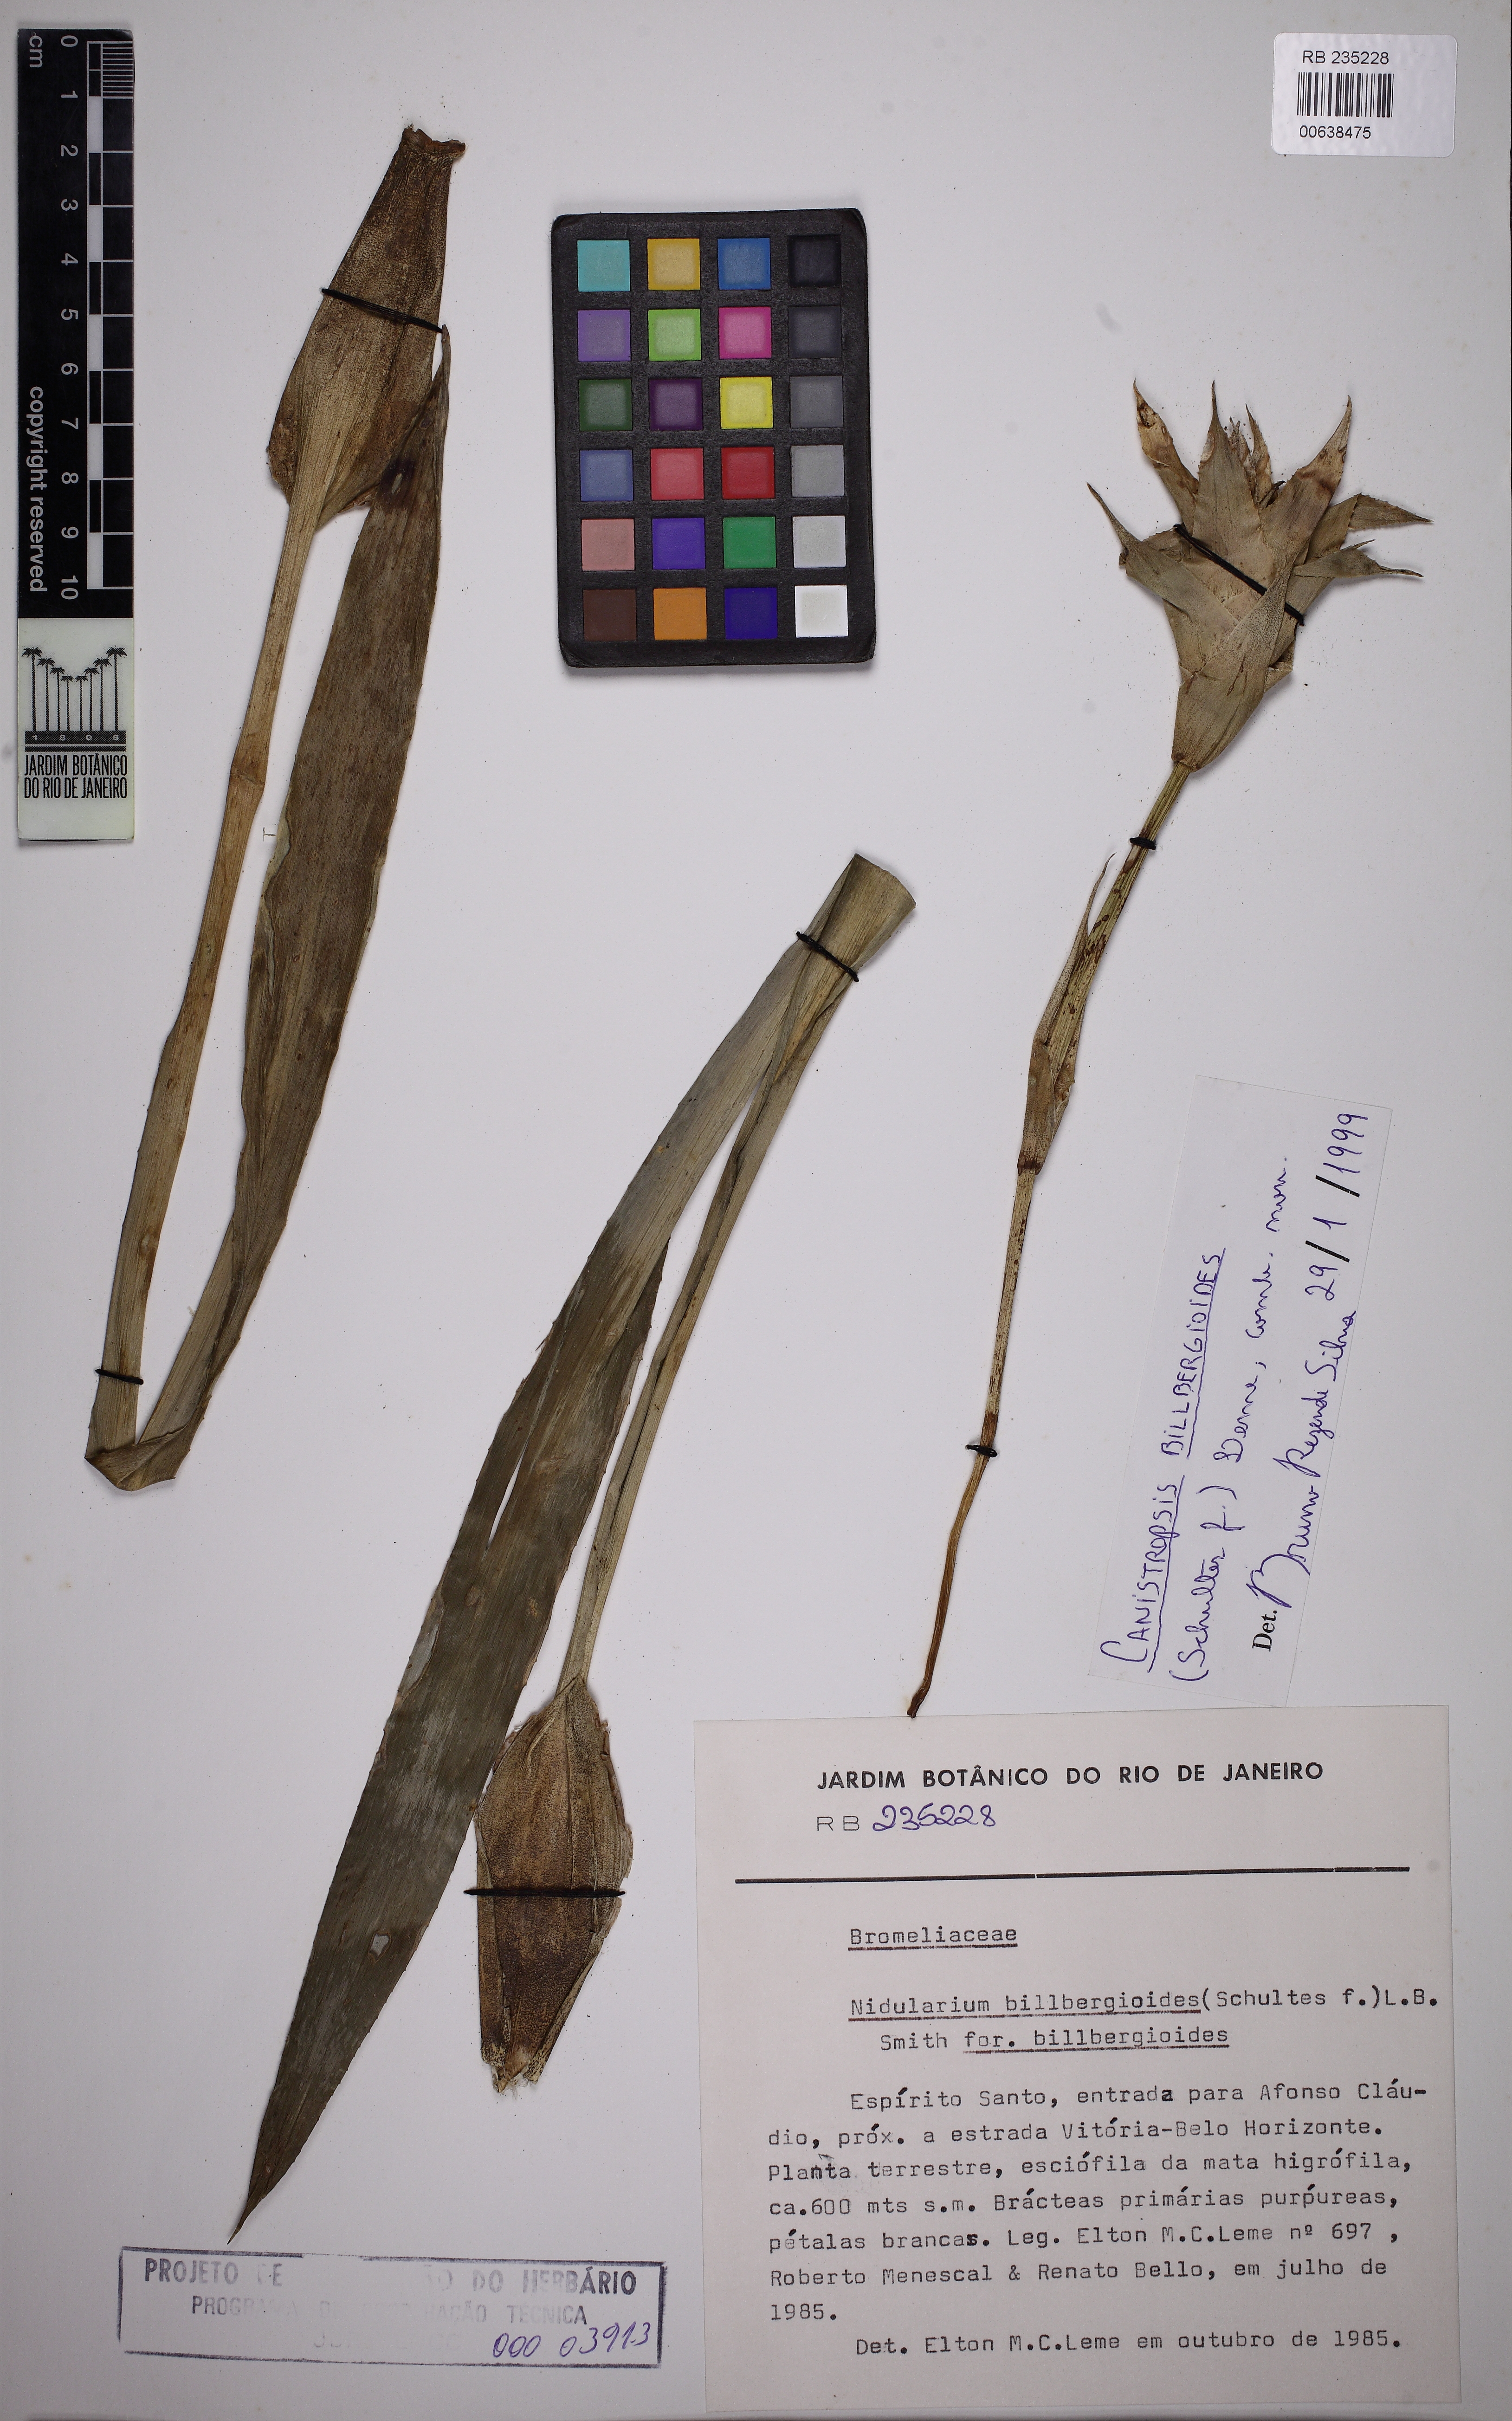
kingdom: Plantae
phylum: Tracheophyta
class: Liliopsida
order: Poales
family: Bromeliaceae
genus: Canistropsis
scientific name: Canistropsis billbergioides
